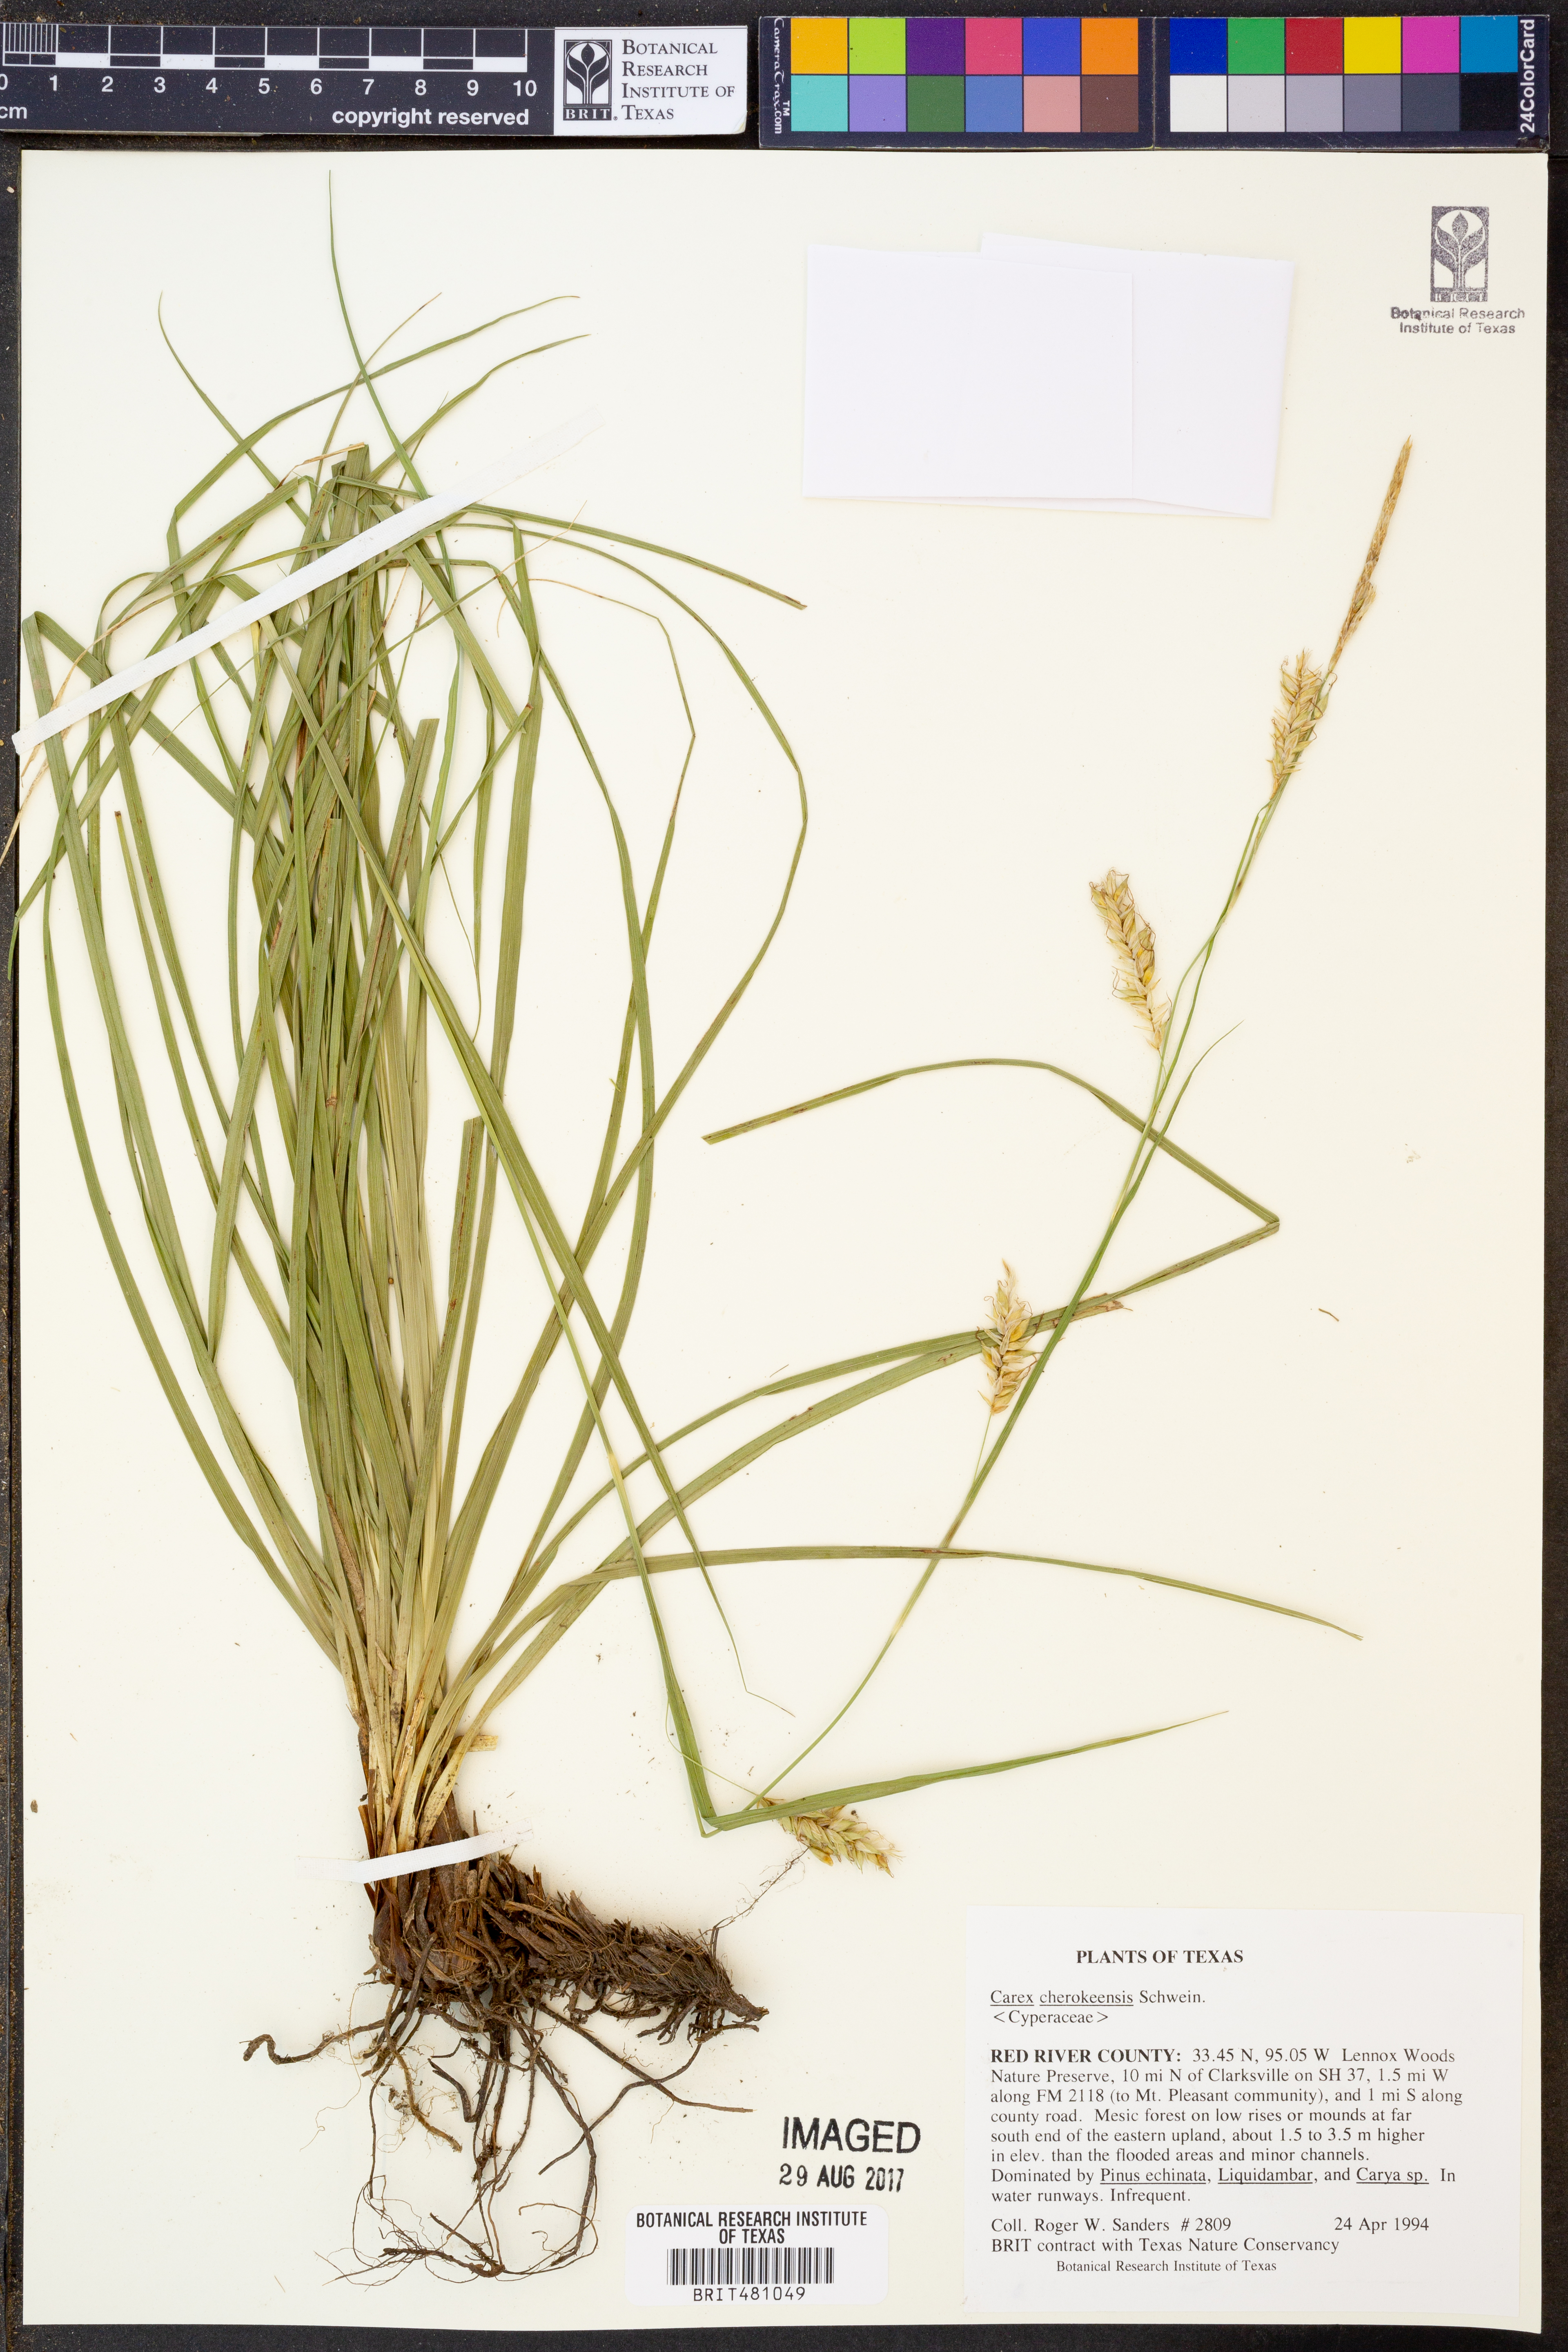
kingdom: Plantae
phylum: Tracheophyta
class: Liliopsida
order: Poales
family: Cyperaceae
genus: Carex
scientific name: Carex cherokeensis
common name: Cherokee sedge
